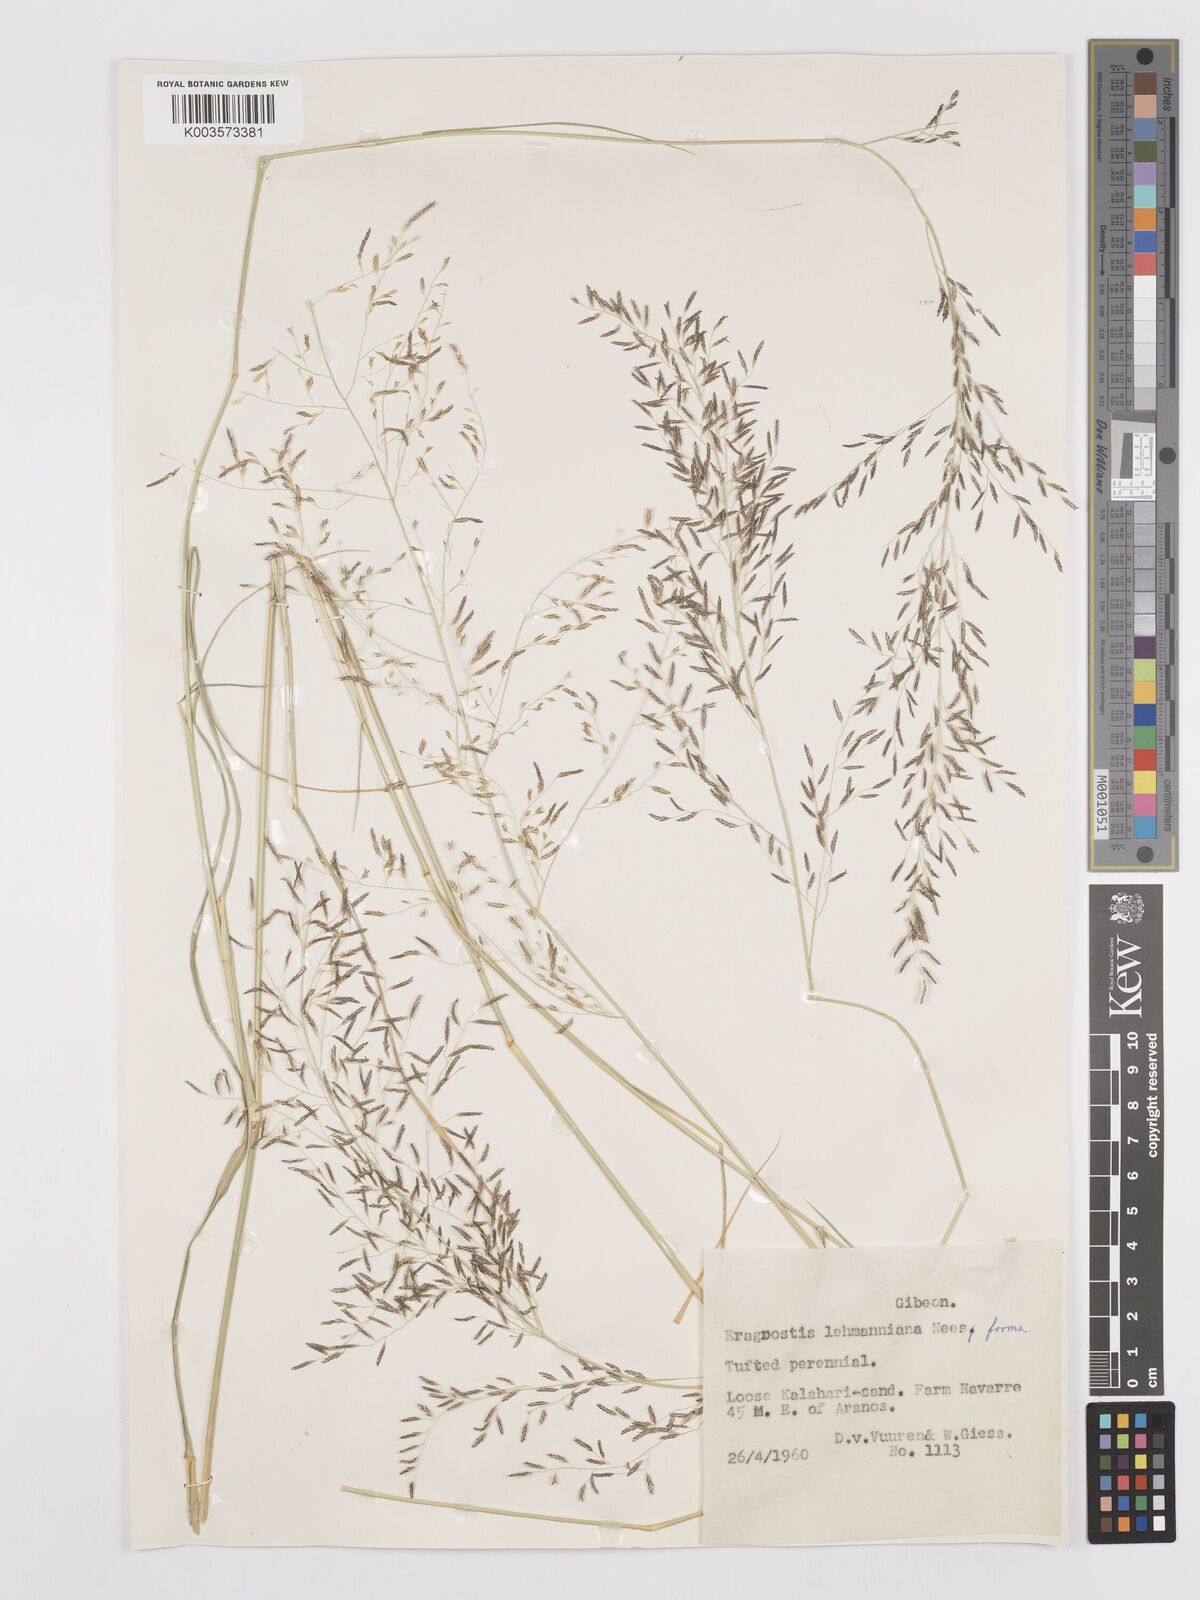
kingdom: Plantae
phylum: Tracheophyta
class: Liliopsida
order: Poales
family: Poaceae
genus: Eragrostis
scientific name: Eragrostis lehmanniana
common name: Lehmann lovegrass
